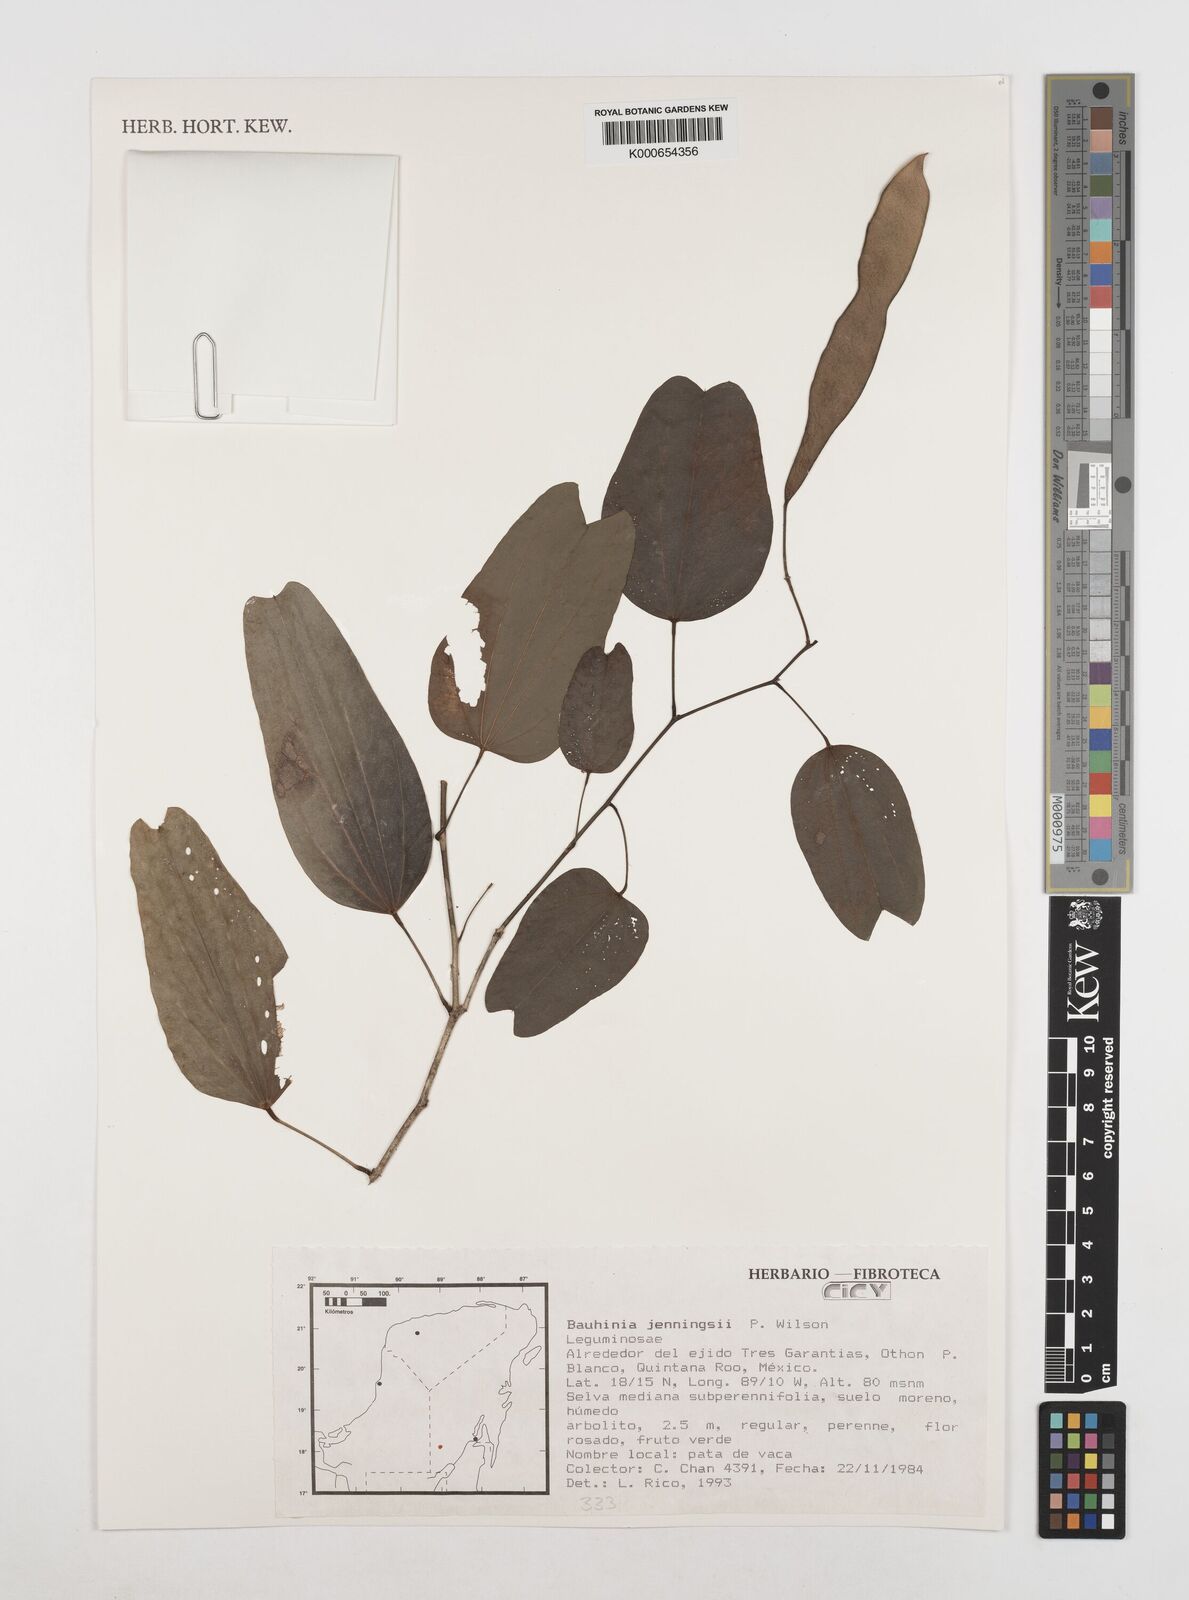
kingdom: Plantae
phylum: Tracheophyta
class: Magnoliopsida
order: Fabales
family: Fabaceae
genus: Bauhinia
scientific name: Bauhinia jenningsii
